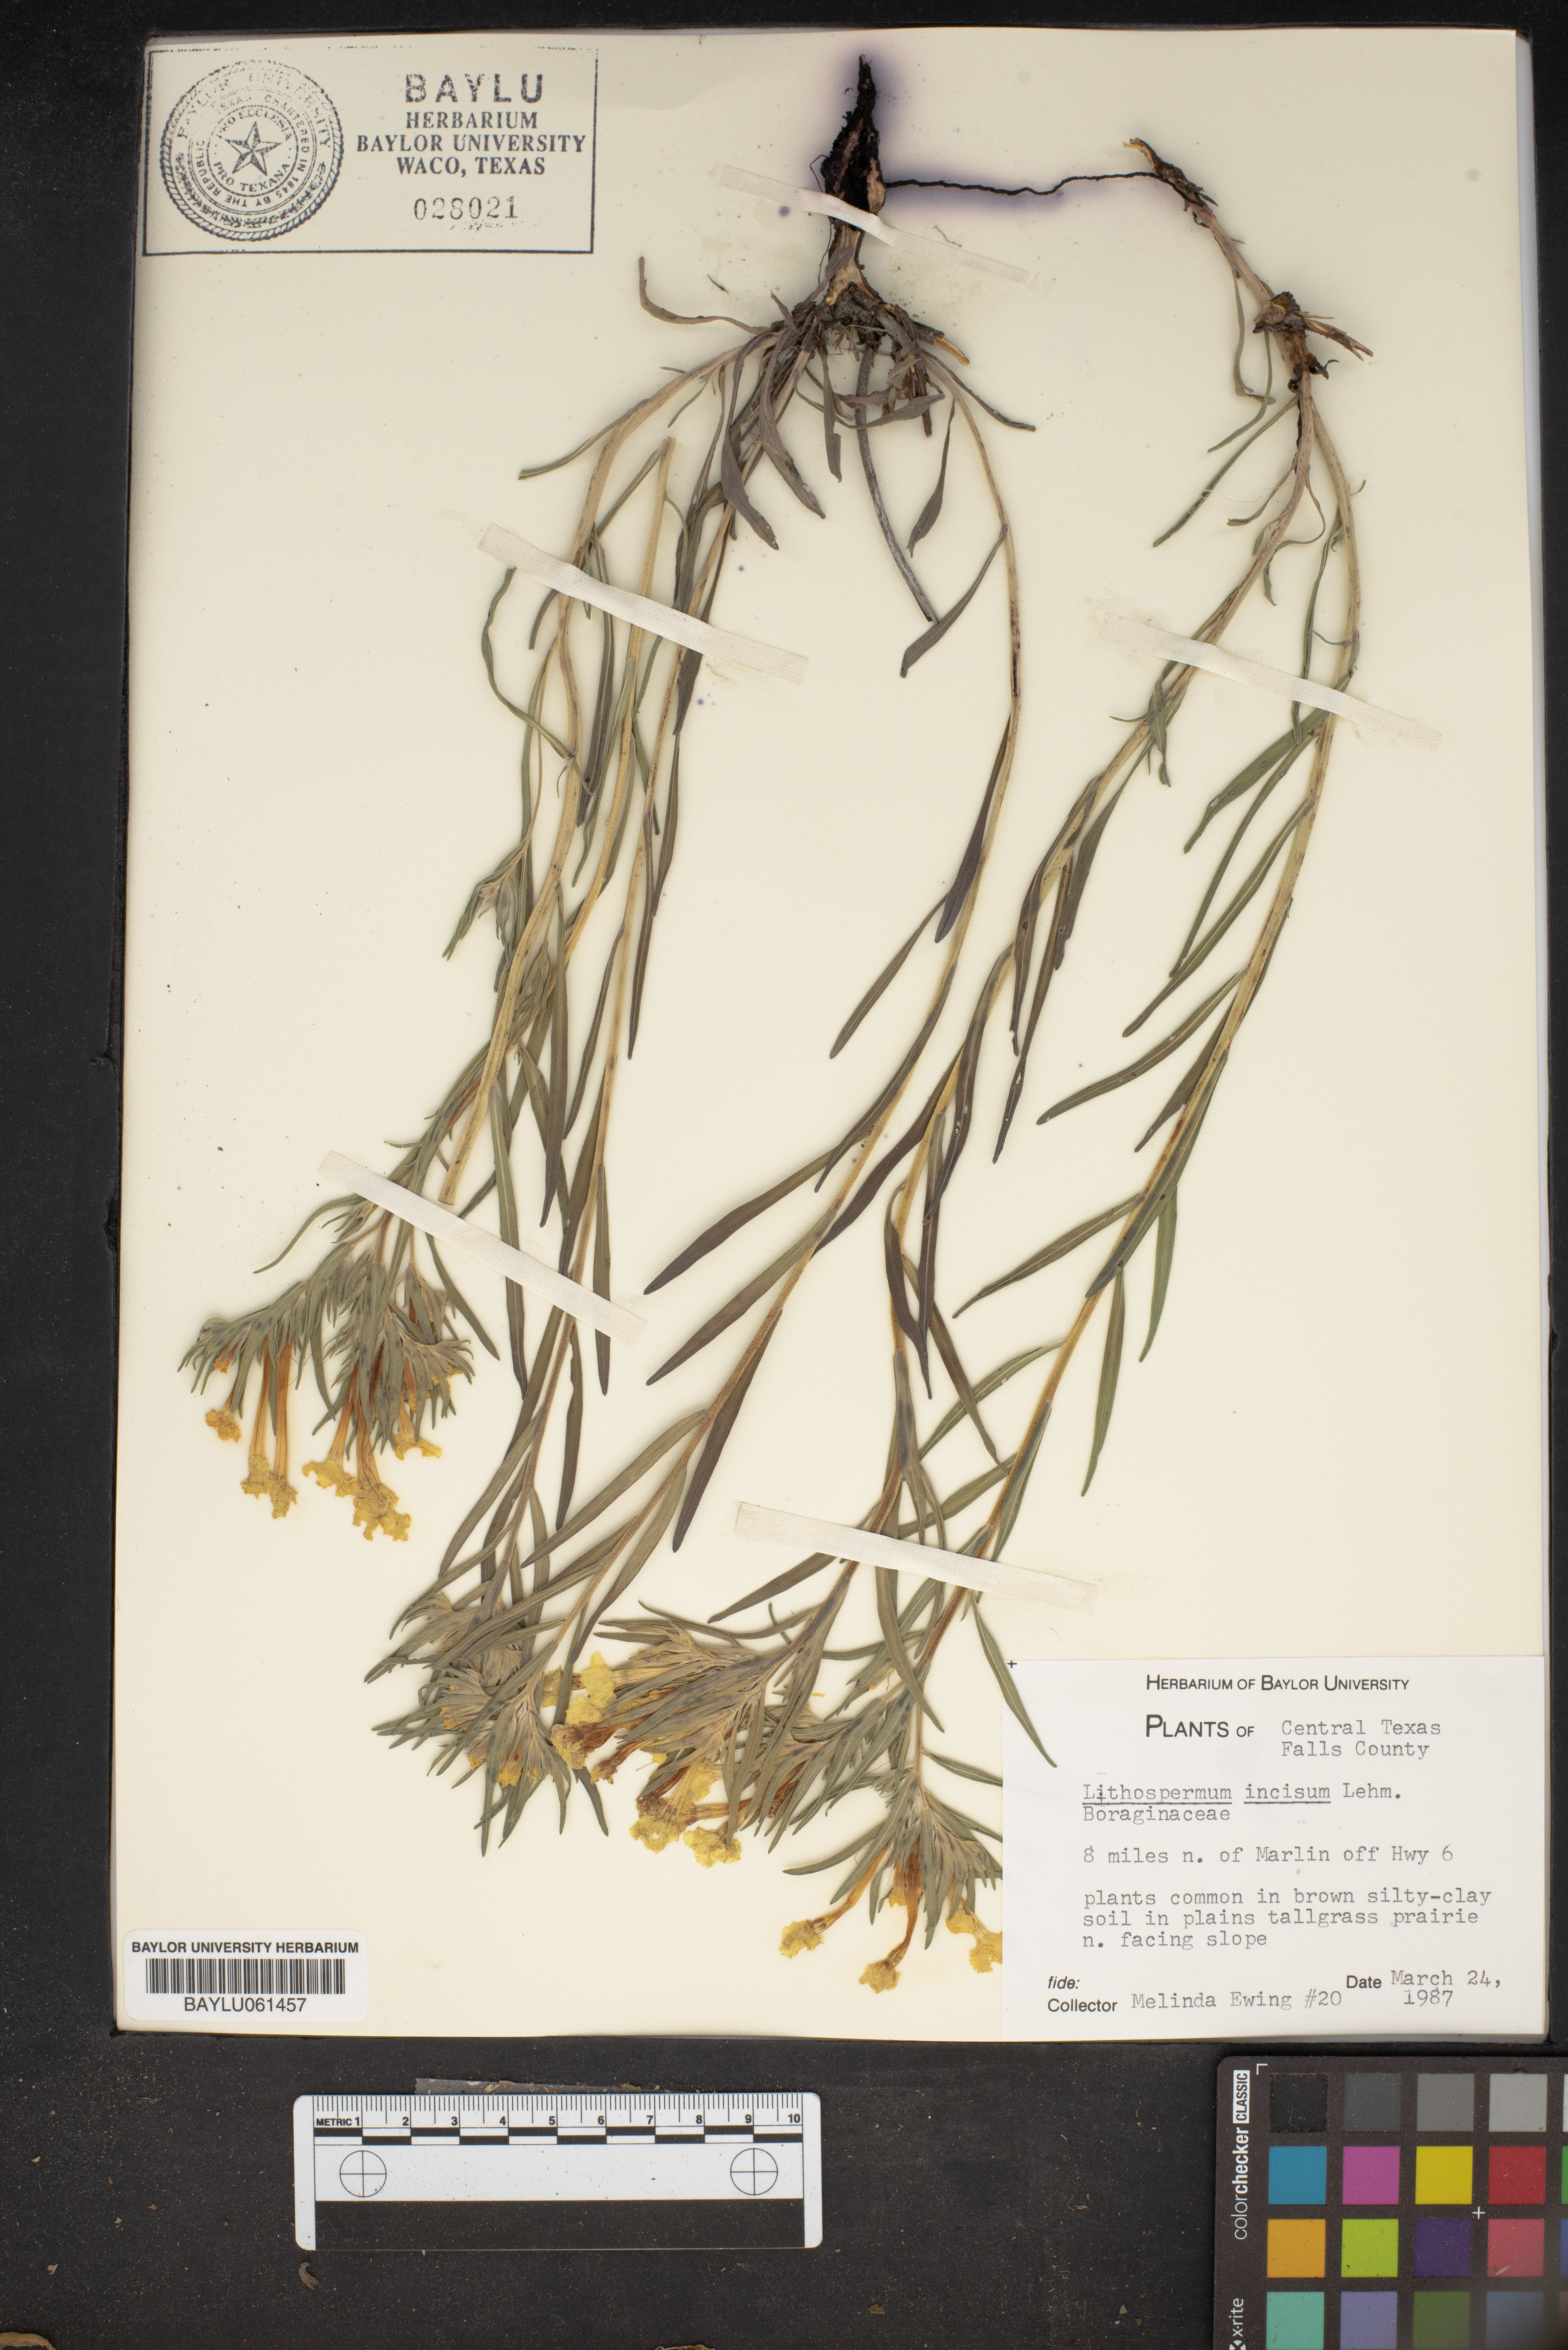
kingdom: Plantae
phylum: Tracheophyta
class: Magnoliopsida
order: Boraginales
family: Boraginaceae
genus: Lithospermum
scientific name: Lithospermum incisum
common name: Fringed gromwell
